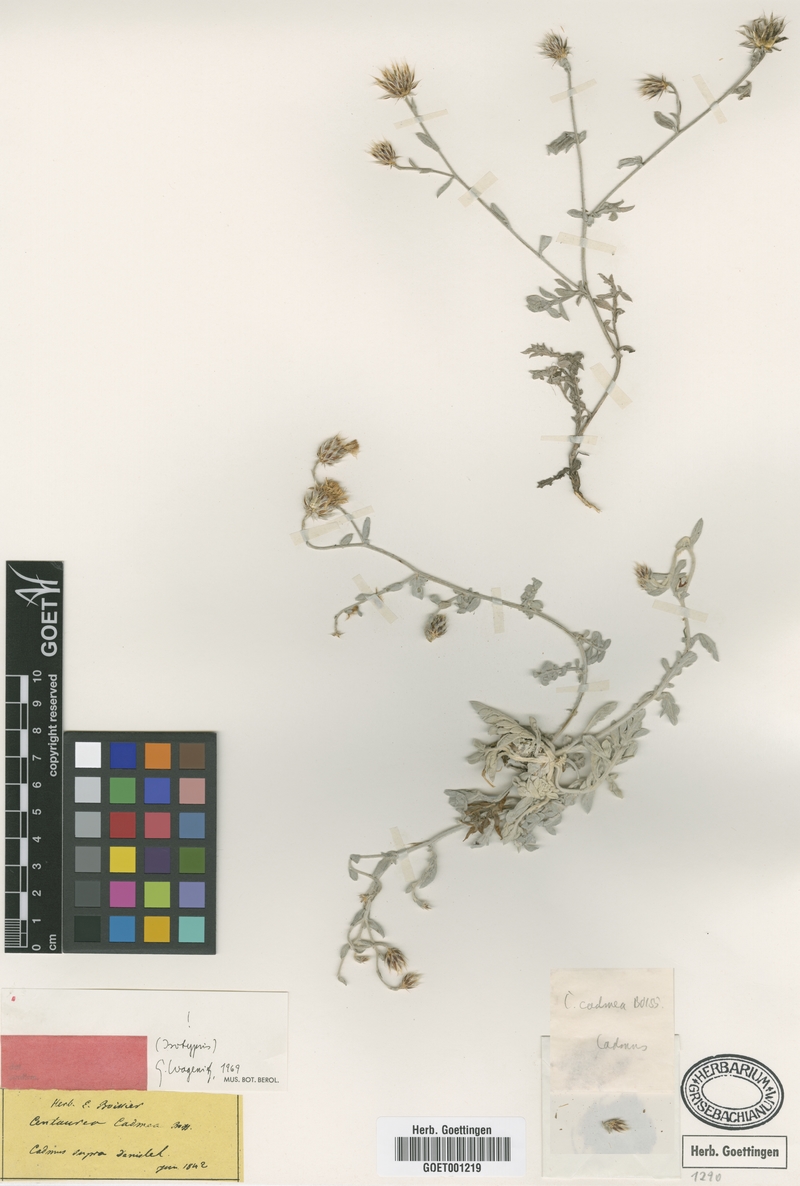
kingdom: Plantae
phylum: Tracheophyta
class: Magnoliopsida
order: Asterales
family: Asteraceae
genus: Centaurea
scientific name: Centaurea cadmea
